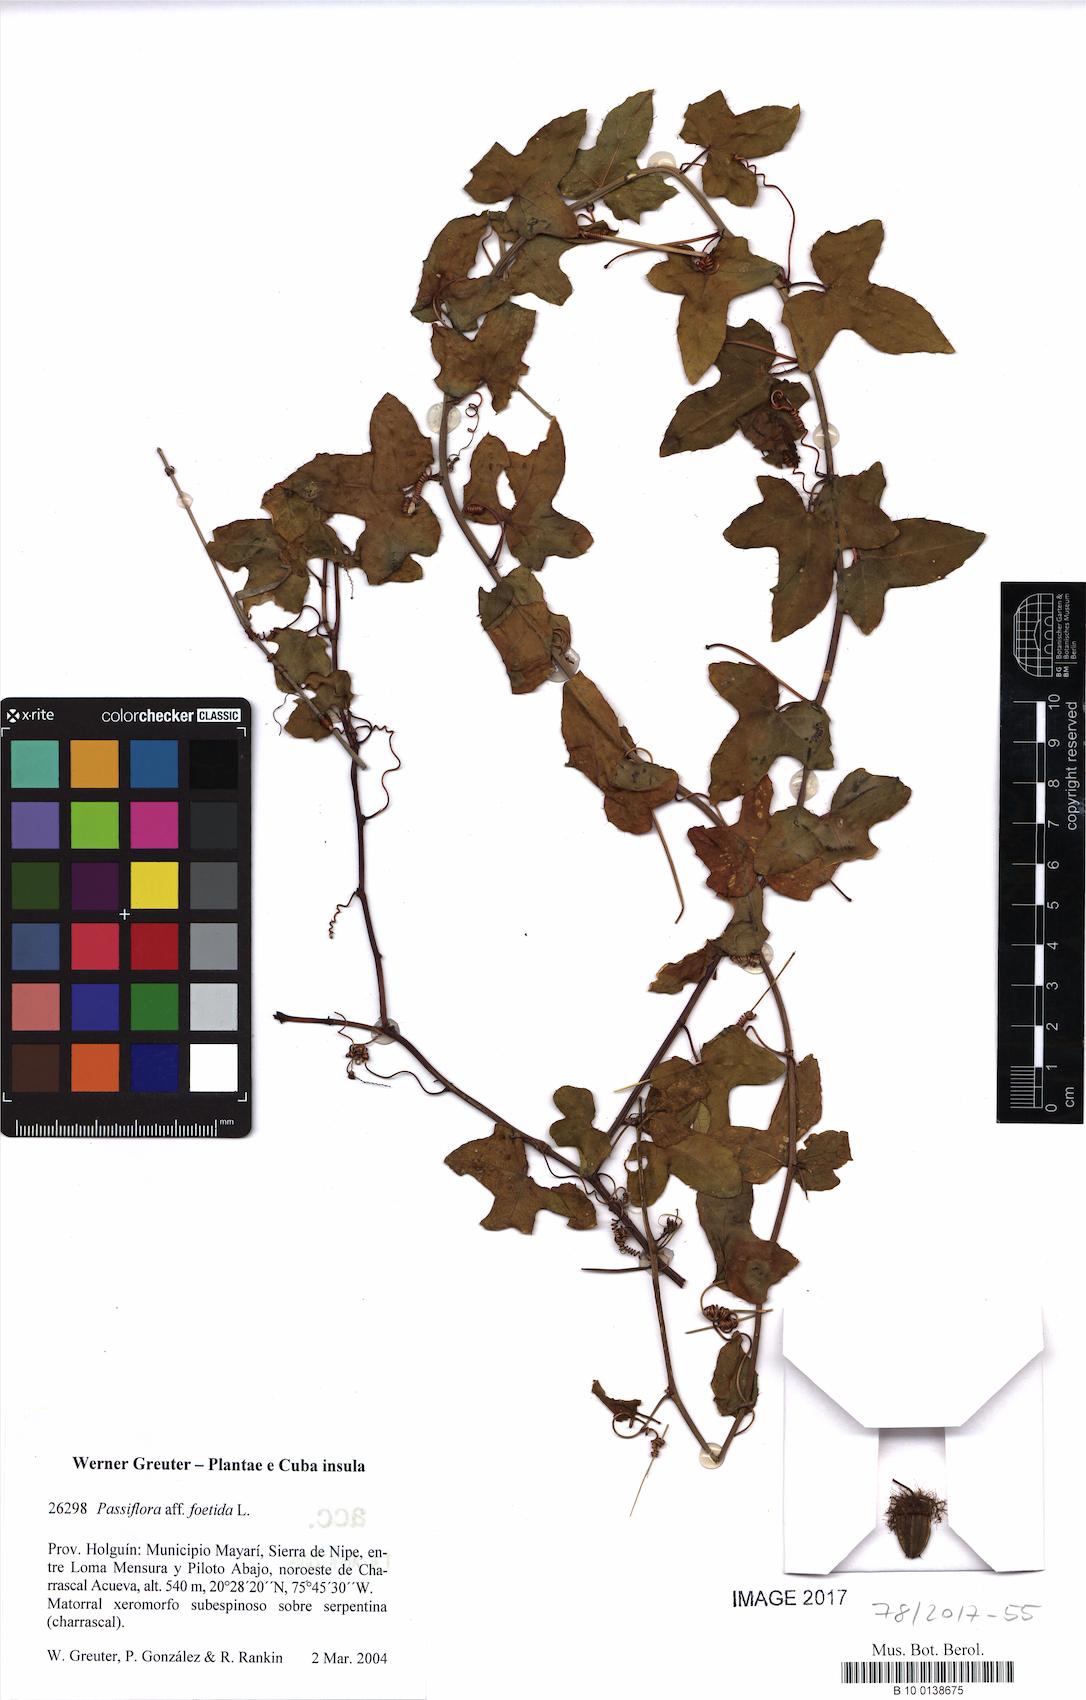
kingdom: Plantae
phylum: Tracheophyta
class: Magnoliopsida
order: Malpighiales
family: Passifloraceae
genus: Passiflora
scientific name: Passiflora foetida
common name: Fetid passionflower
